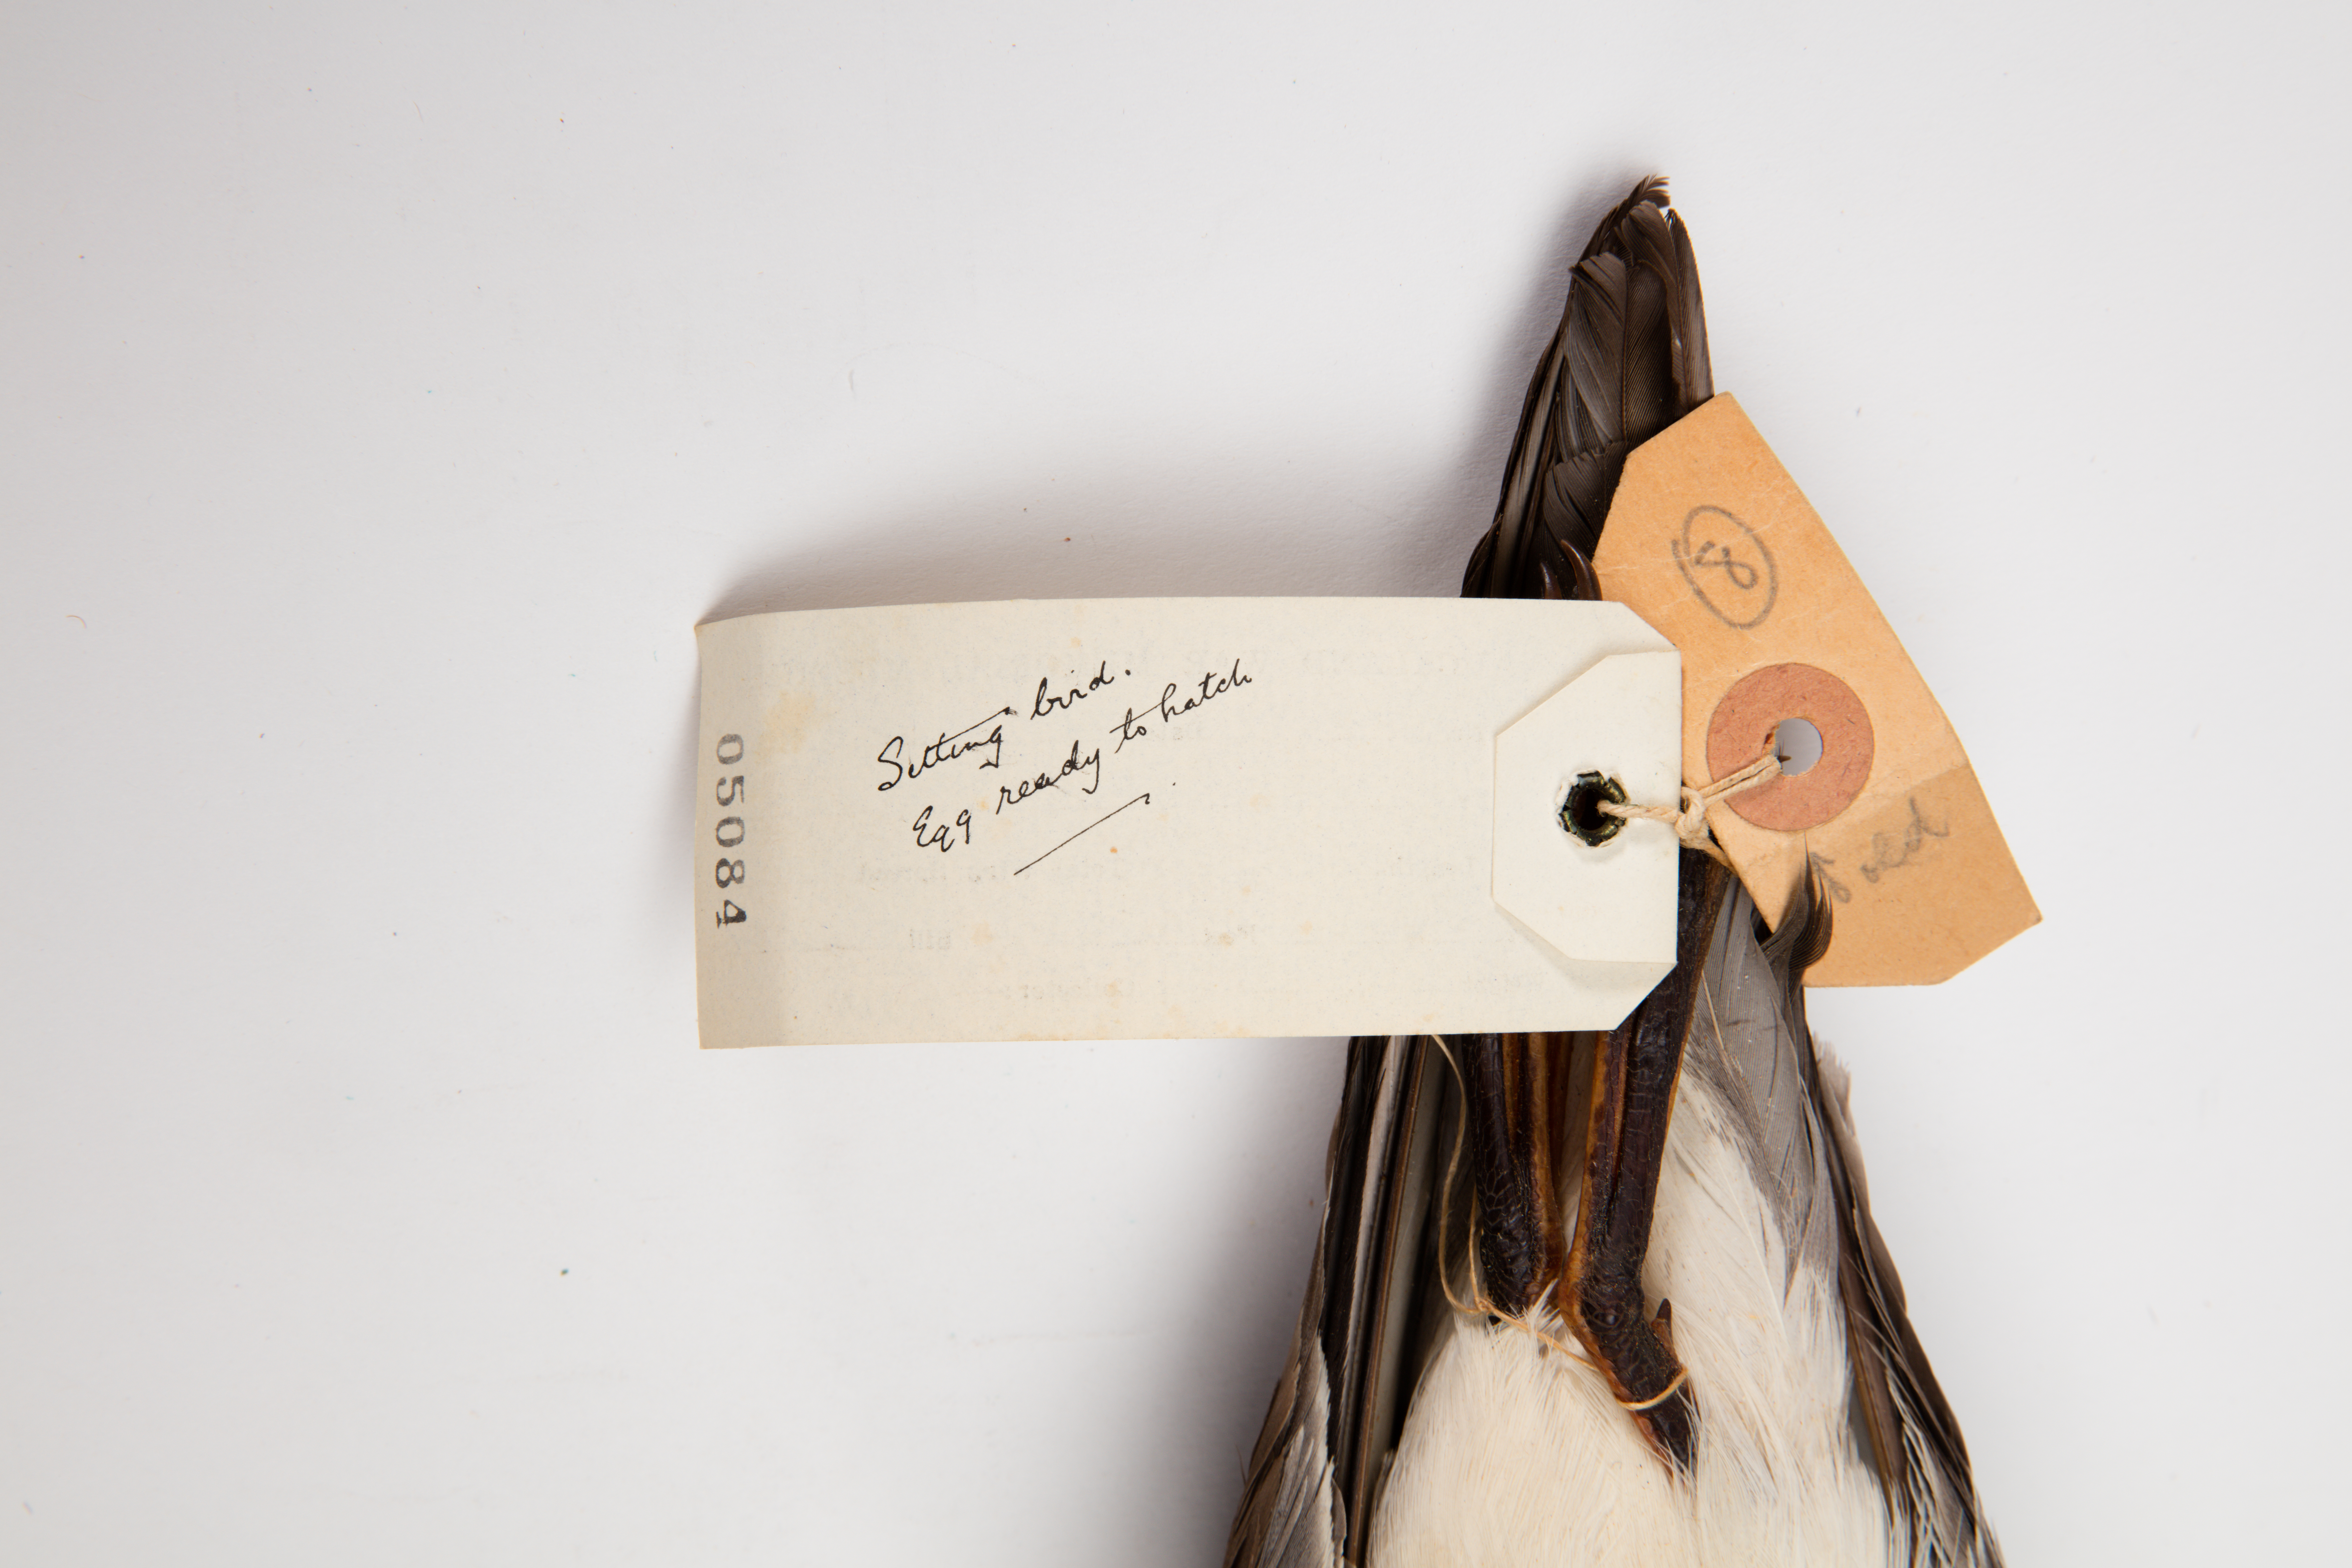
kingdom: Animalia
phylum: Chordata
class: Aves
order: Procellariiformes
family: Procellariidae
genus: Ardenna
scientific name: Ardenna
